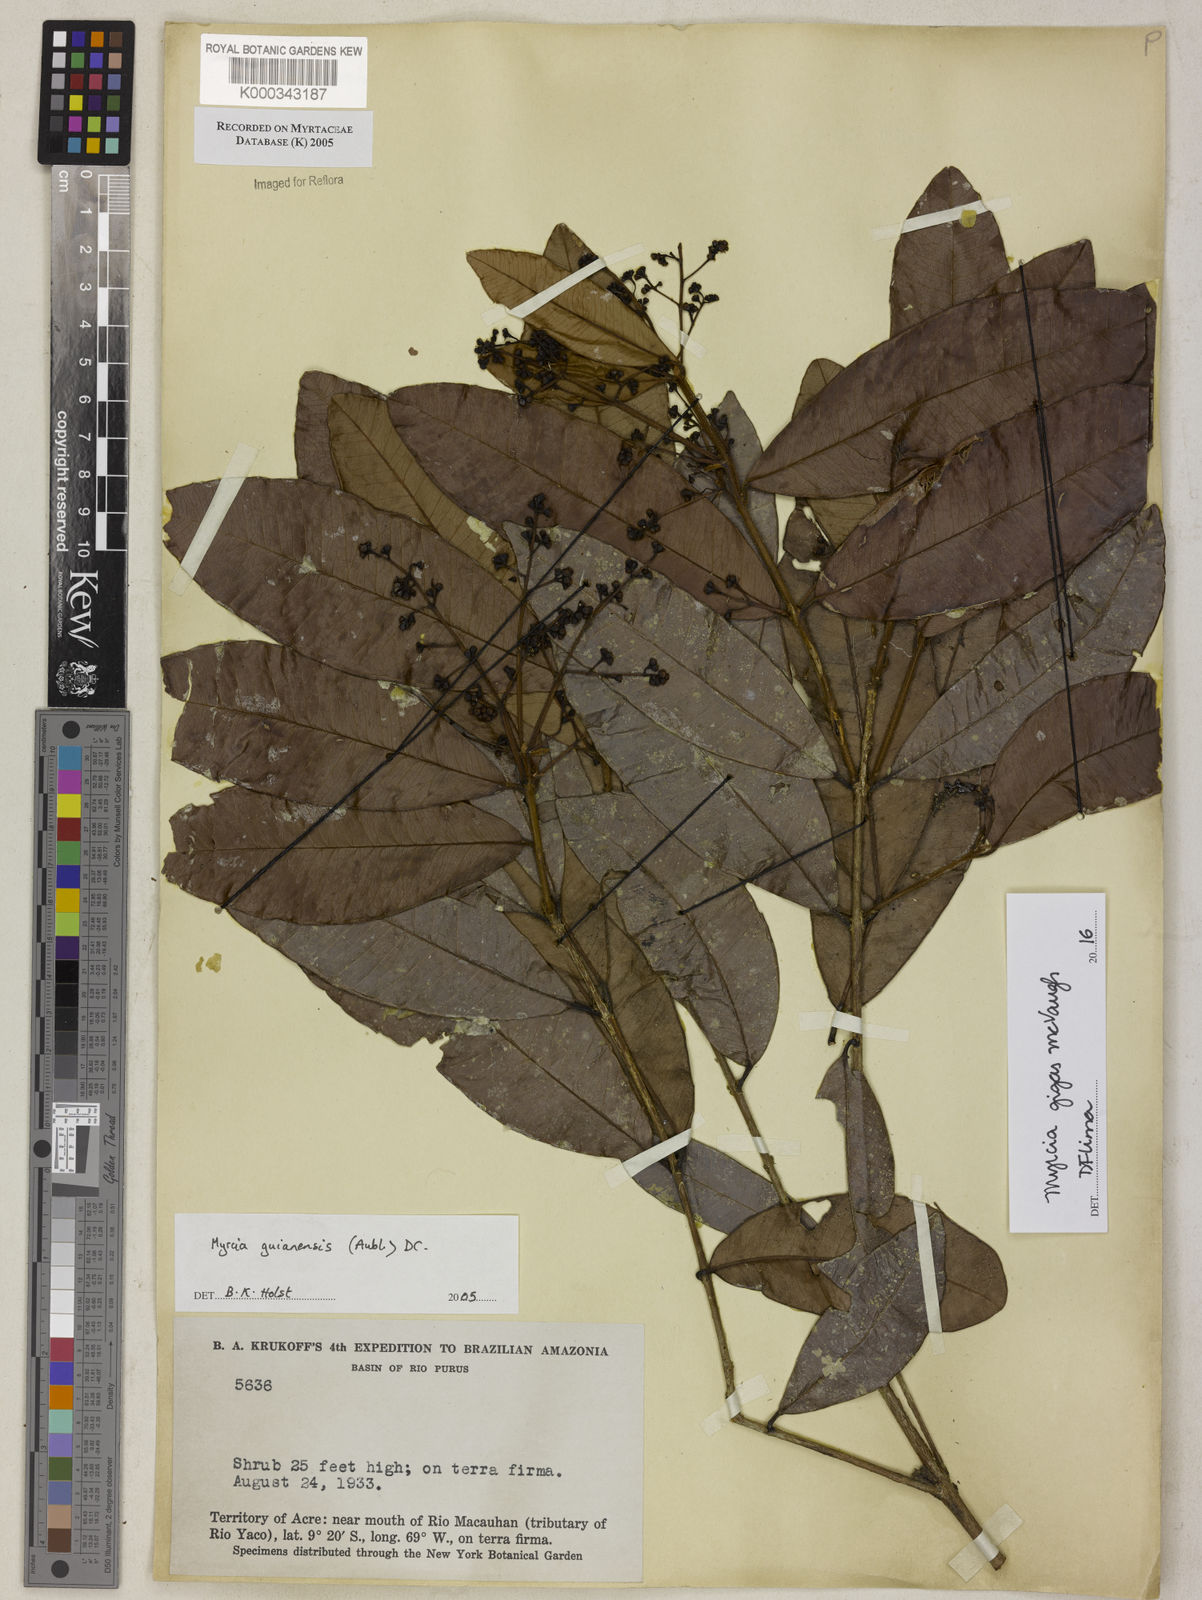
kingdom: Plantae
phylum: Tracheophyta
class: Magnoliopsida
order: Myrtales
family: Myrtaceae
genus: Myrcia
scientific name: Myrcia guianensis
